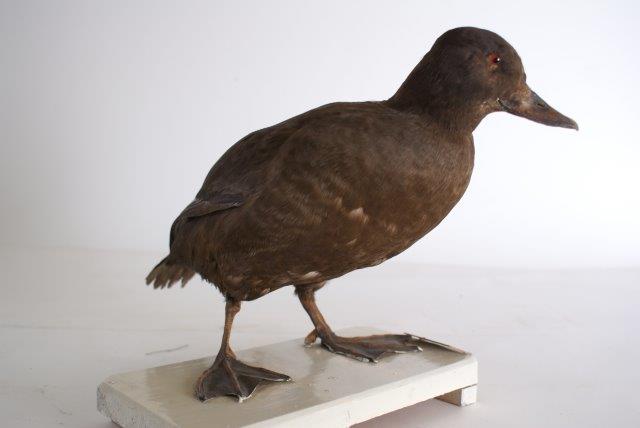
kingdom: Animalia
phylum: Chordata
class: Aves
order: Anseriformes
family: Anatidae
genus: Melanitta
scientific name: Melanitta fusca
